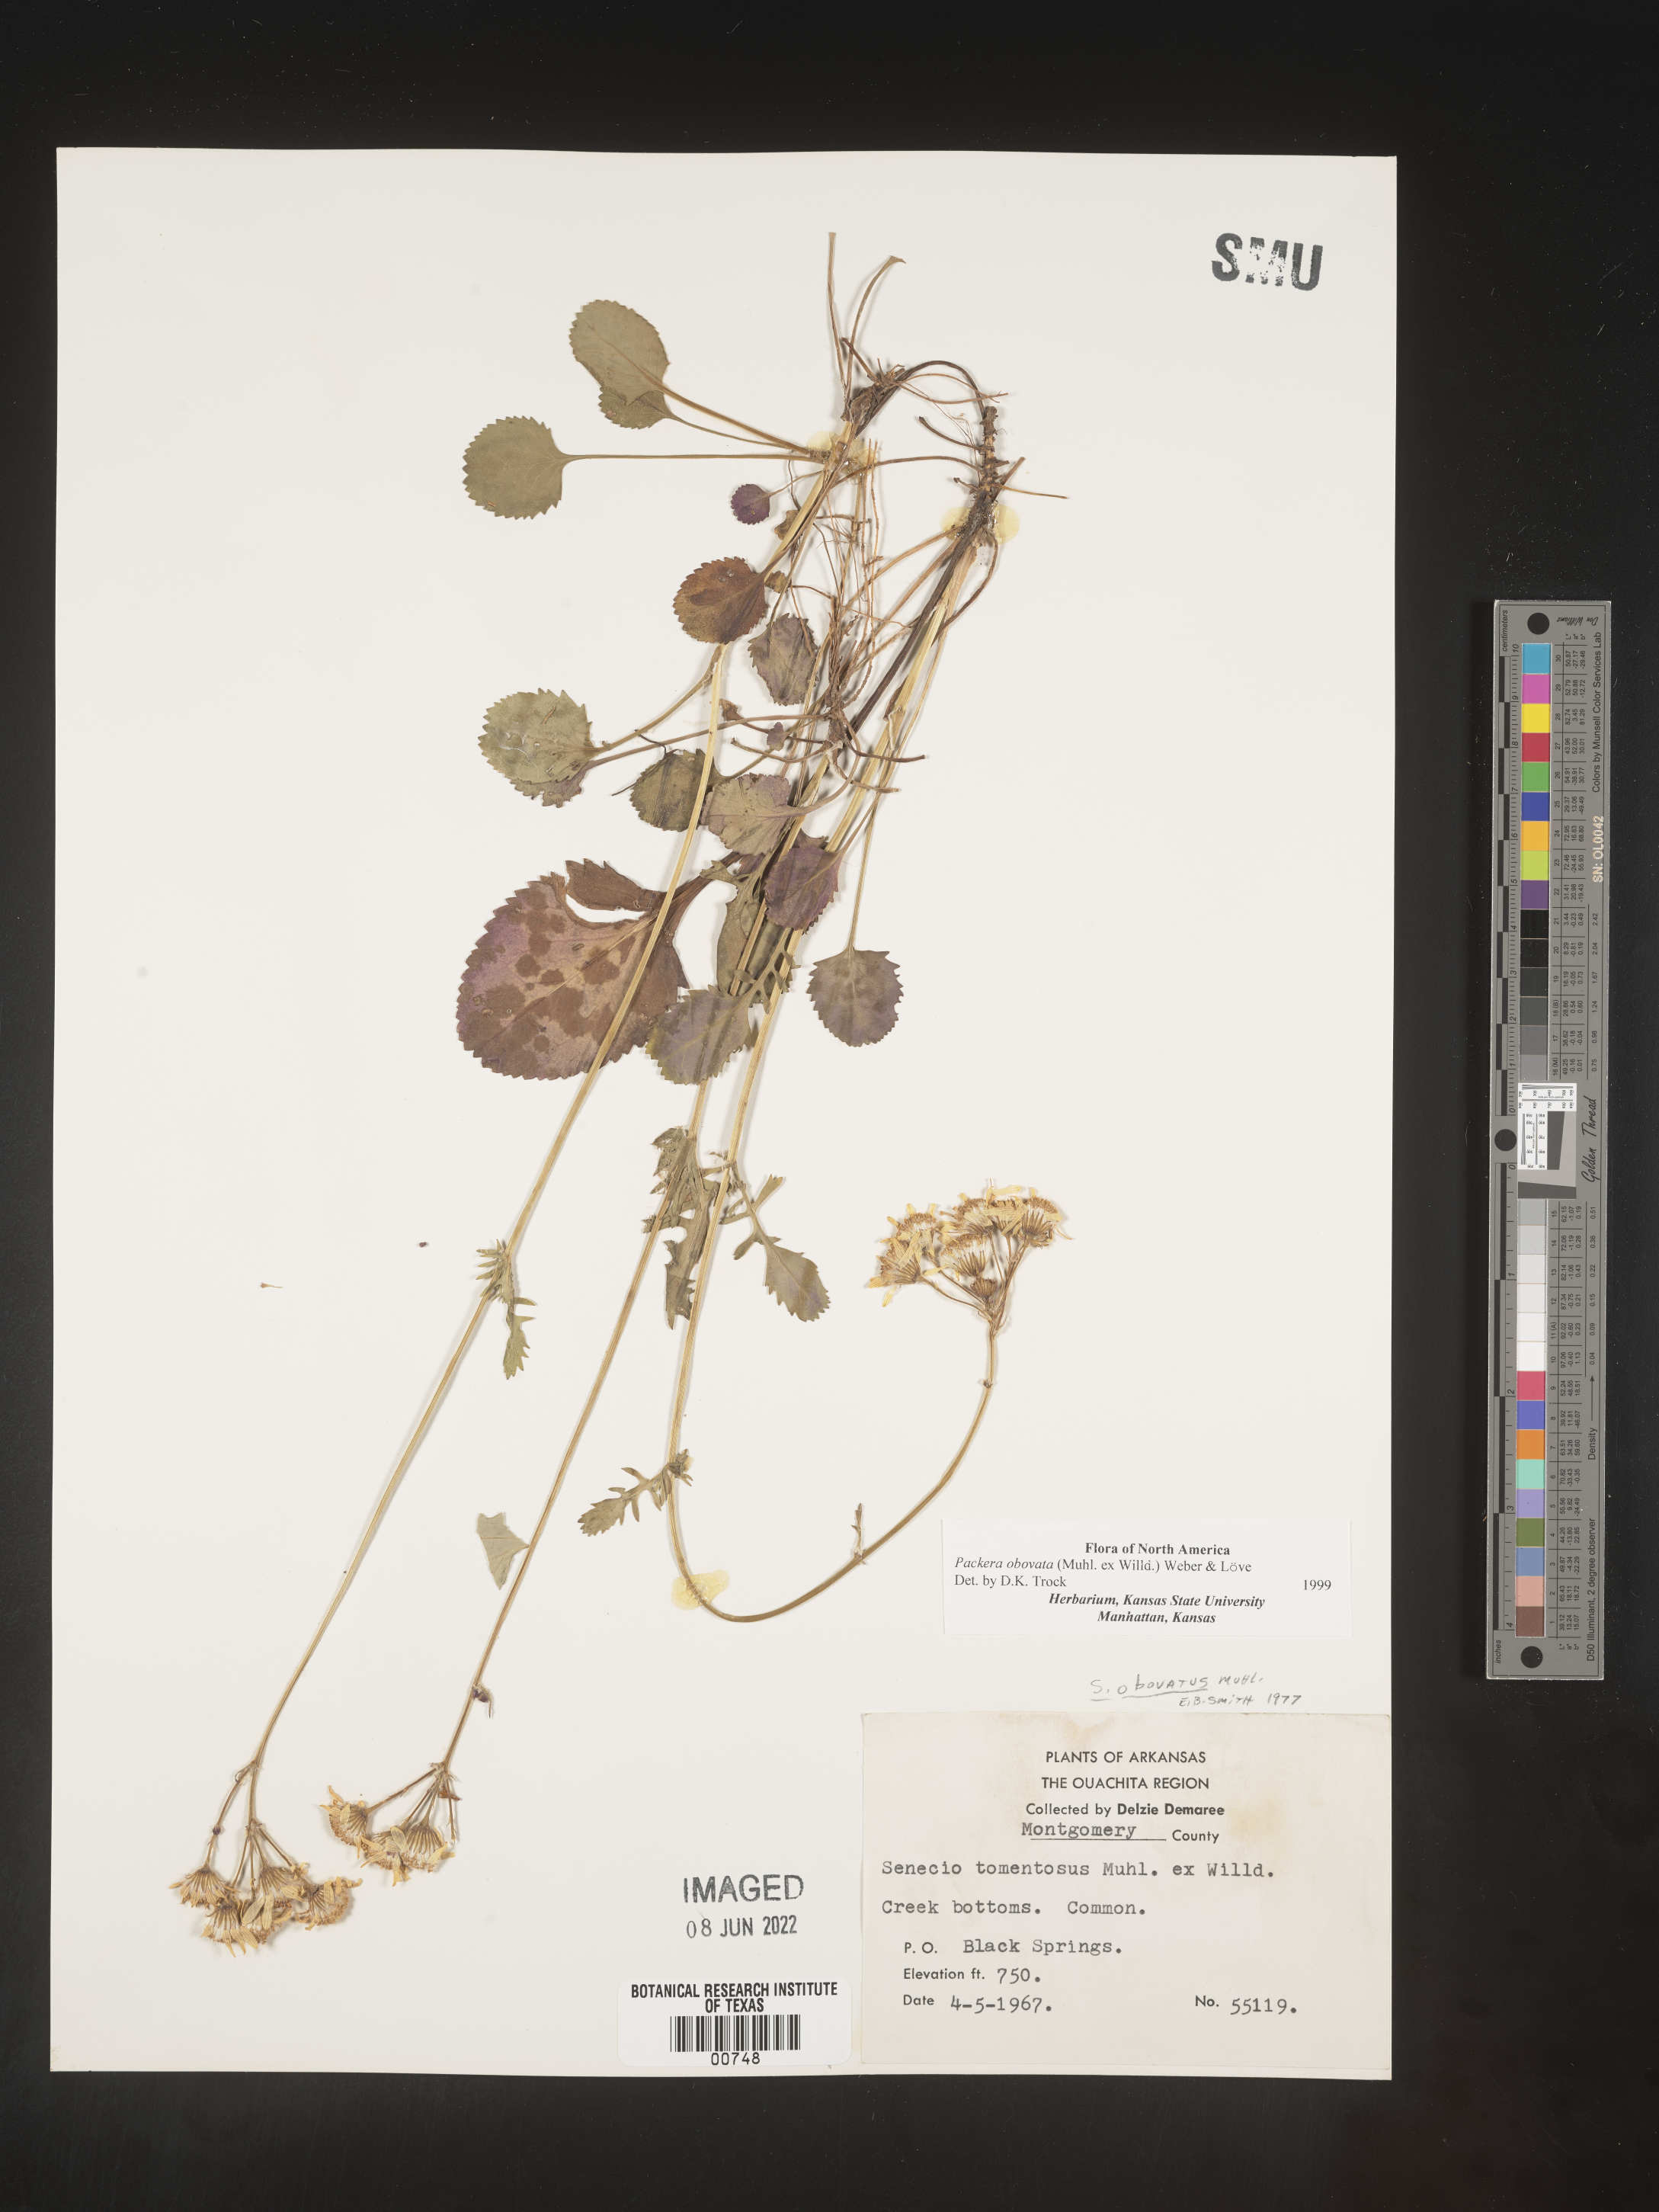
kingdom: Plantae
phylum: Tracheophyta
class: Magnoliopsida
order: Asterales
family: Asteraceae
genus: Packera
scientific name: Packera obovata
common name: Round-leaf ragwort
